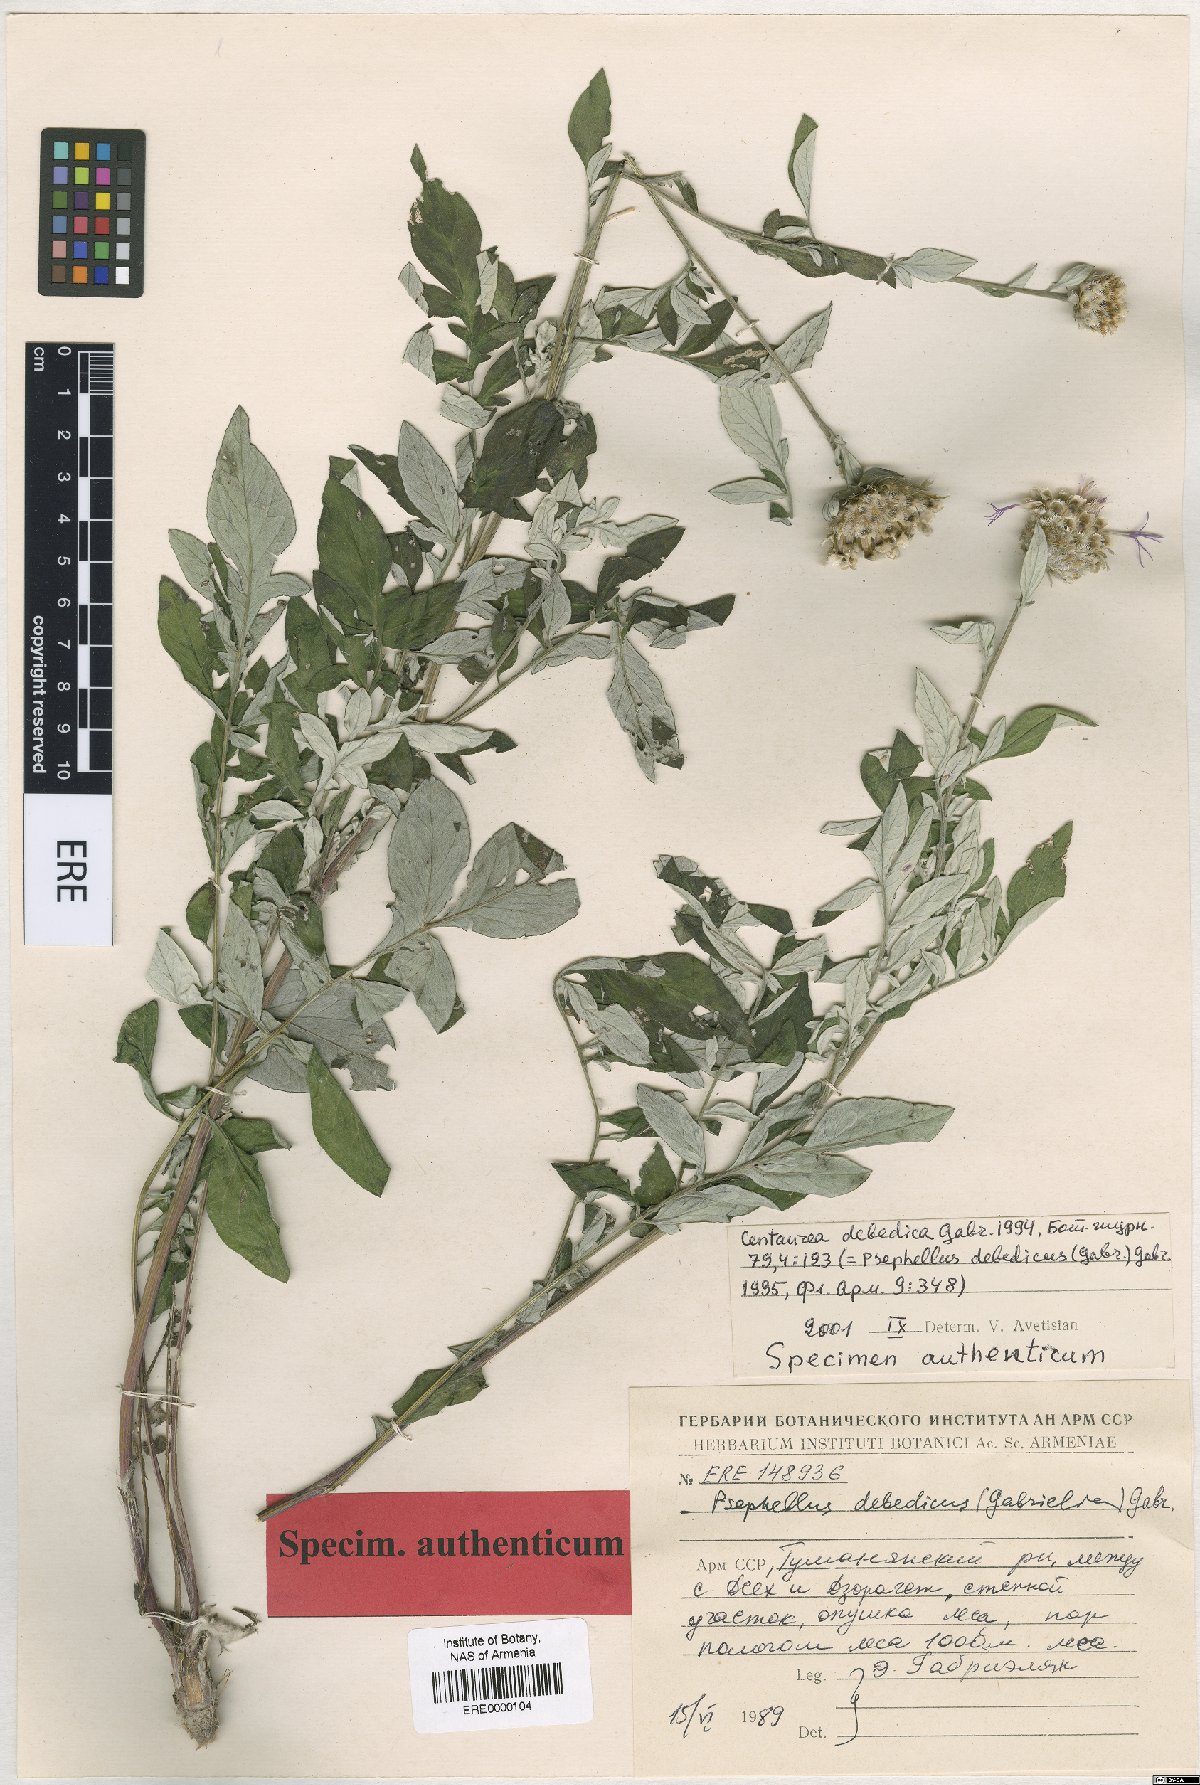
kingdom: Plantae
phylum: Tracheophyta
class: Magnoliopsida
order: Asterales
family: Asteraceae
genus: Psephellus
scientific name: Psephellus debedicus
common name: Debedian cornflower
